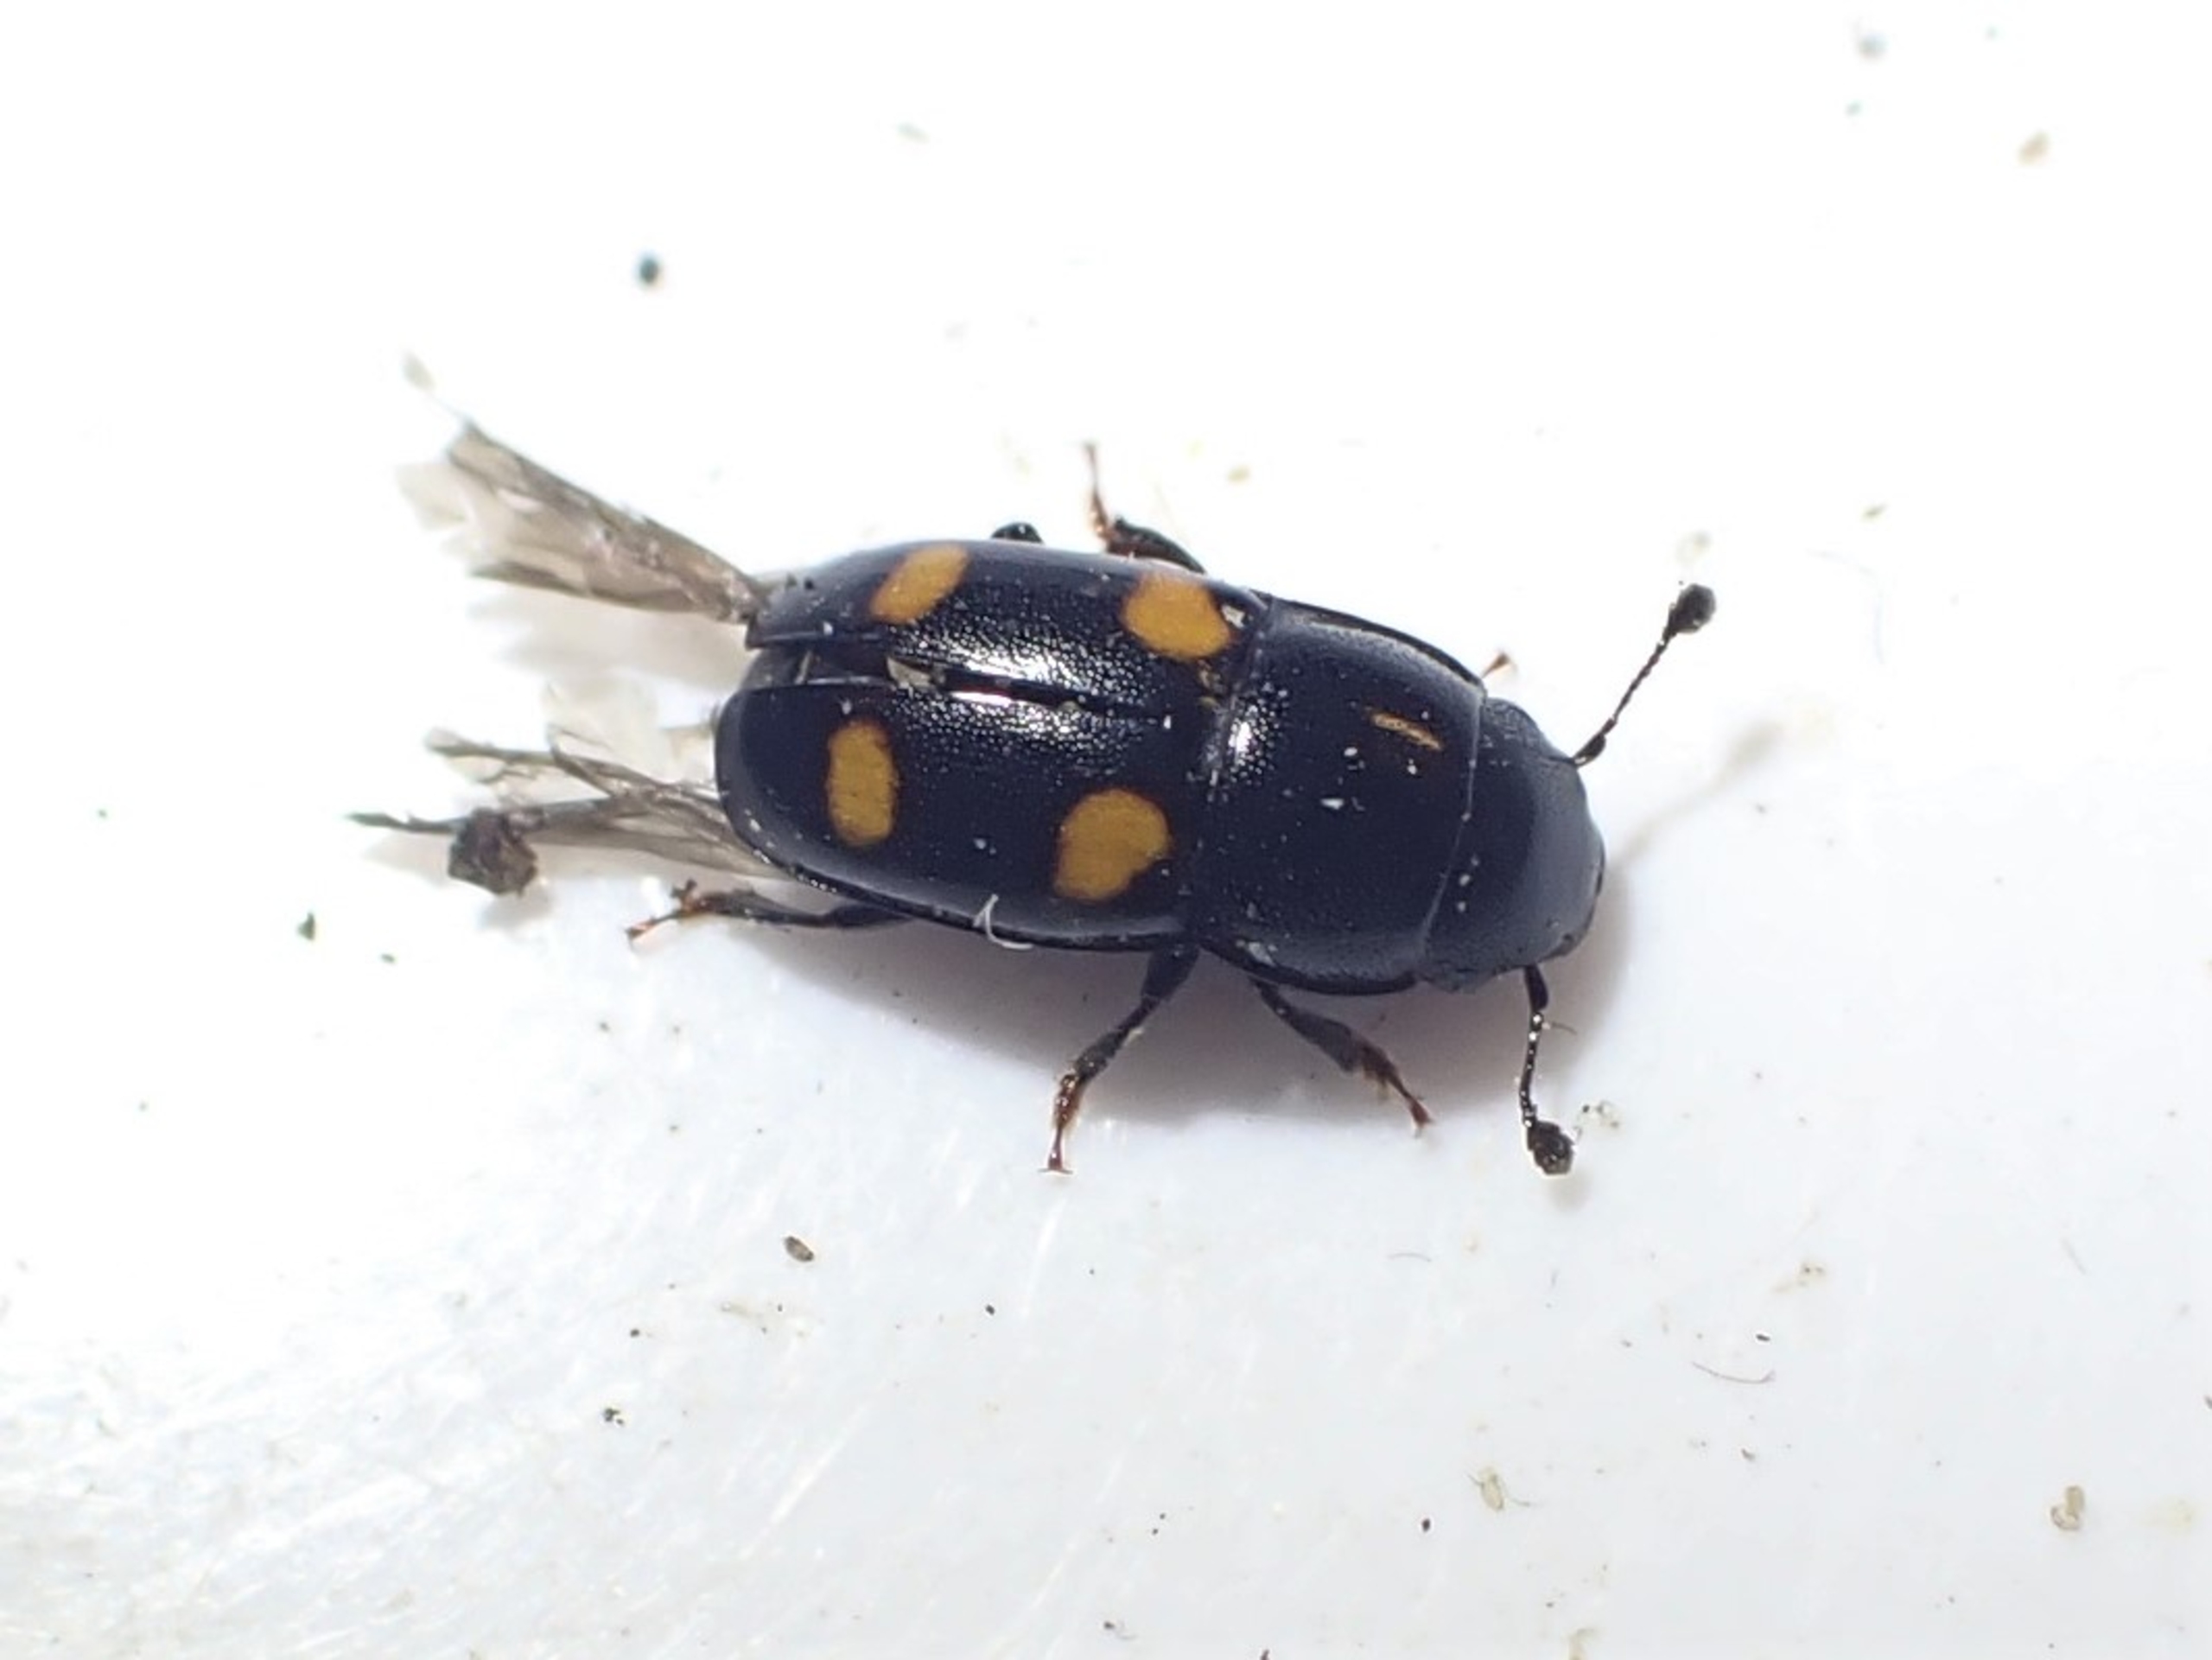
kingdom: Animalia
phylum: Arthropoda
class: Insecta
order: Coleoptera
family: Nitidulidae
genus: Glischrochilus
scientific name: Glischrochilus hortensis
